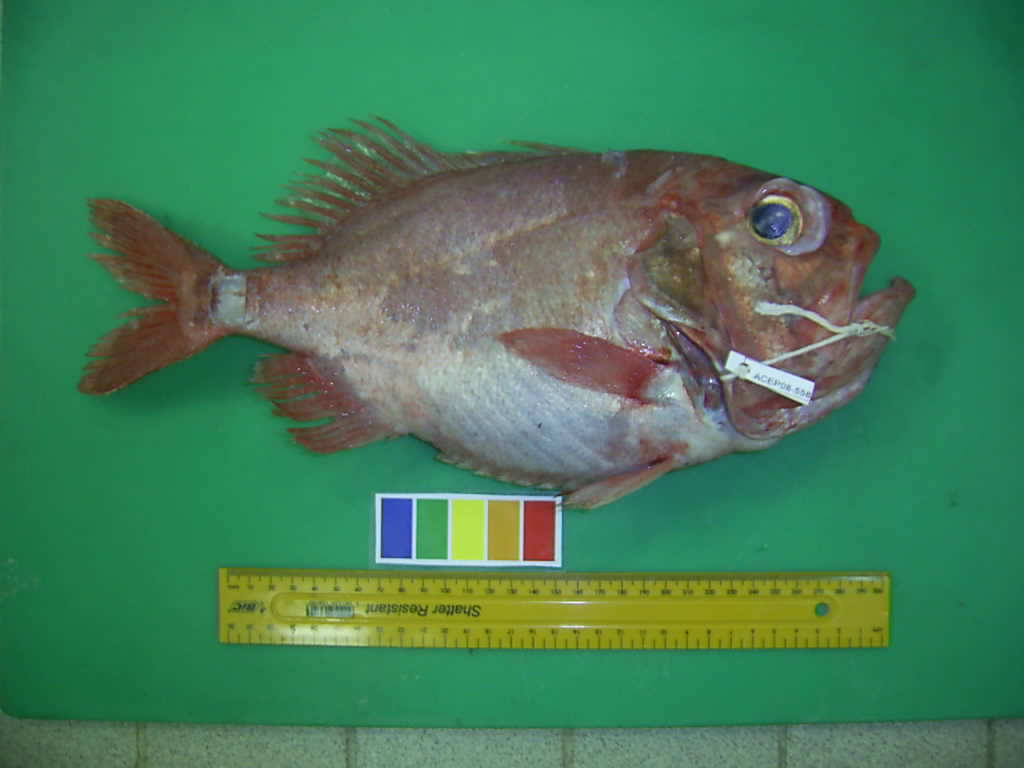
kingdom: Animalia
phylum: Chordata
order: Beryciformes
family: Trachichthyidae
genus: Gephyroberyx
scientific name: Gephyroberyx darwinii
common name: Big roughy
